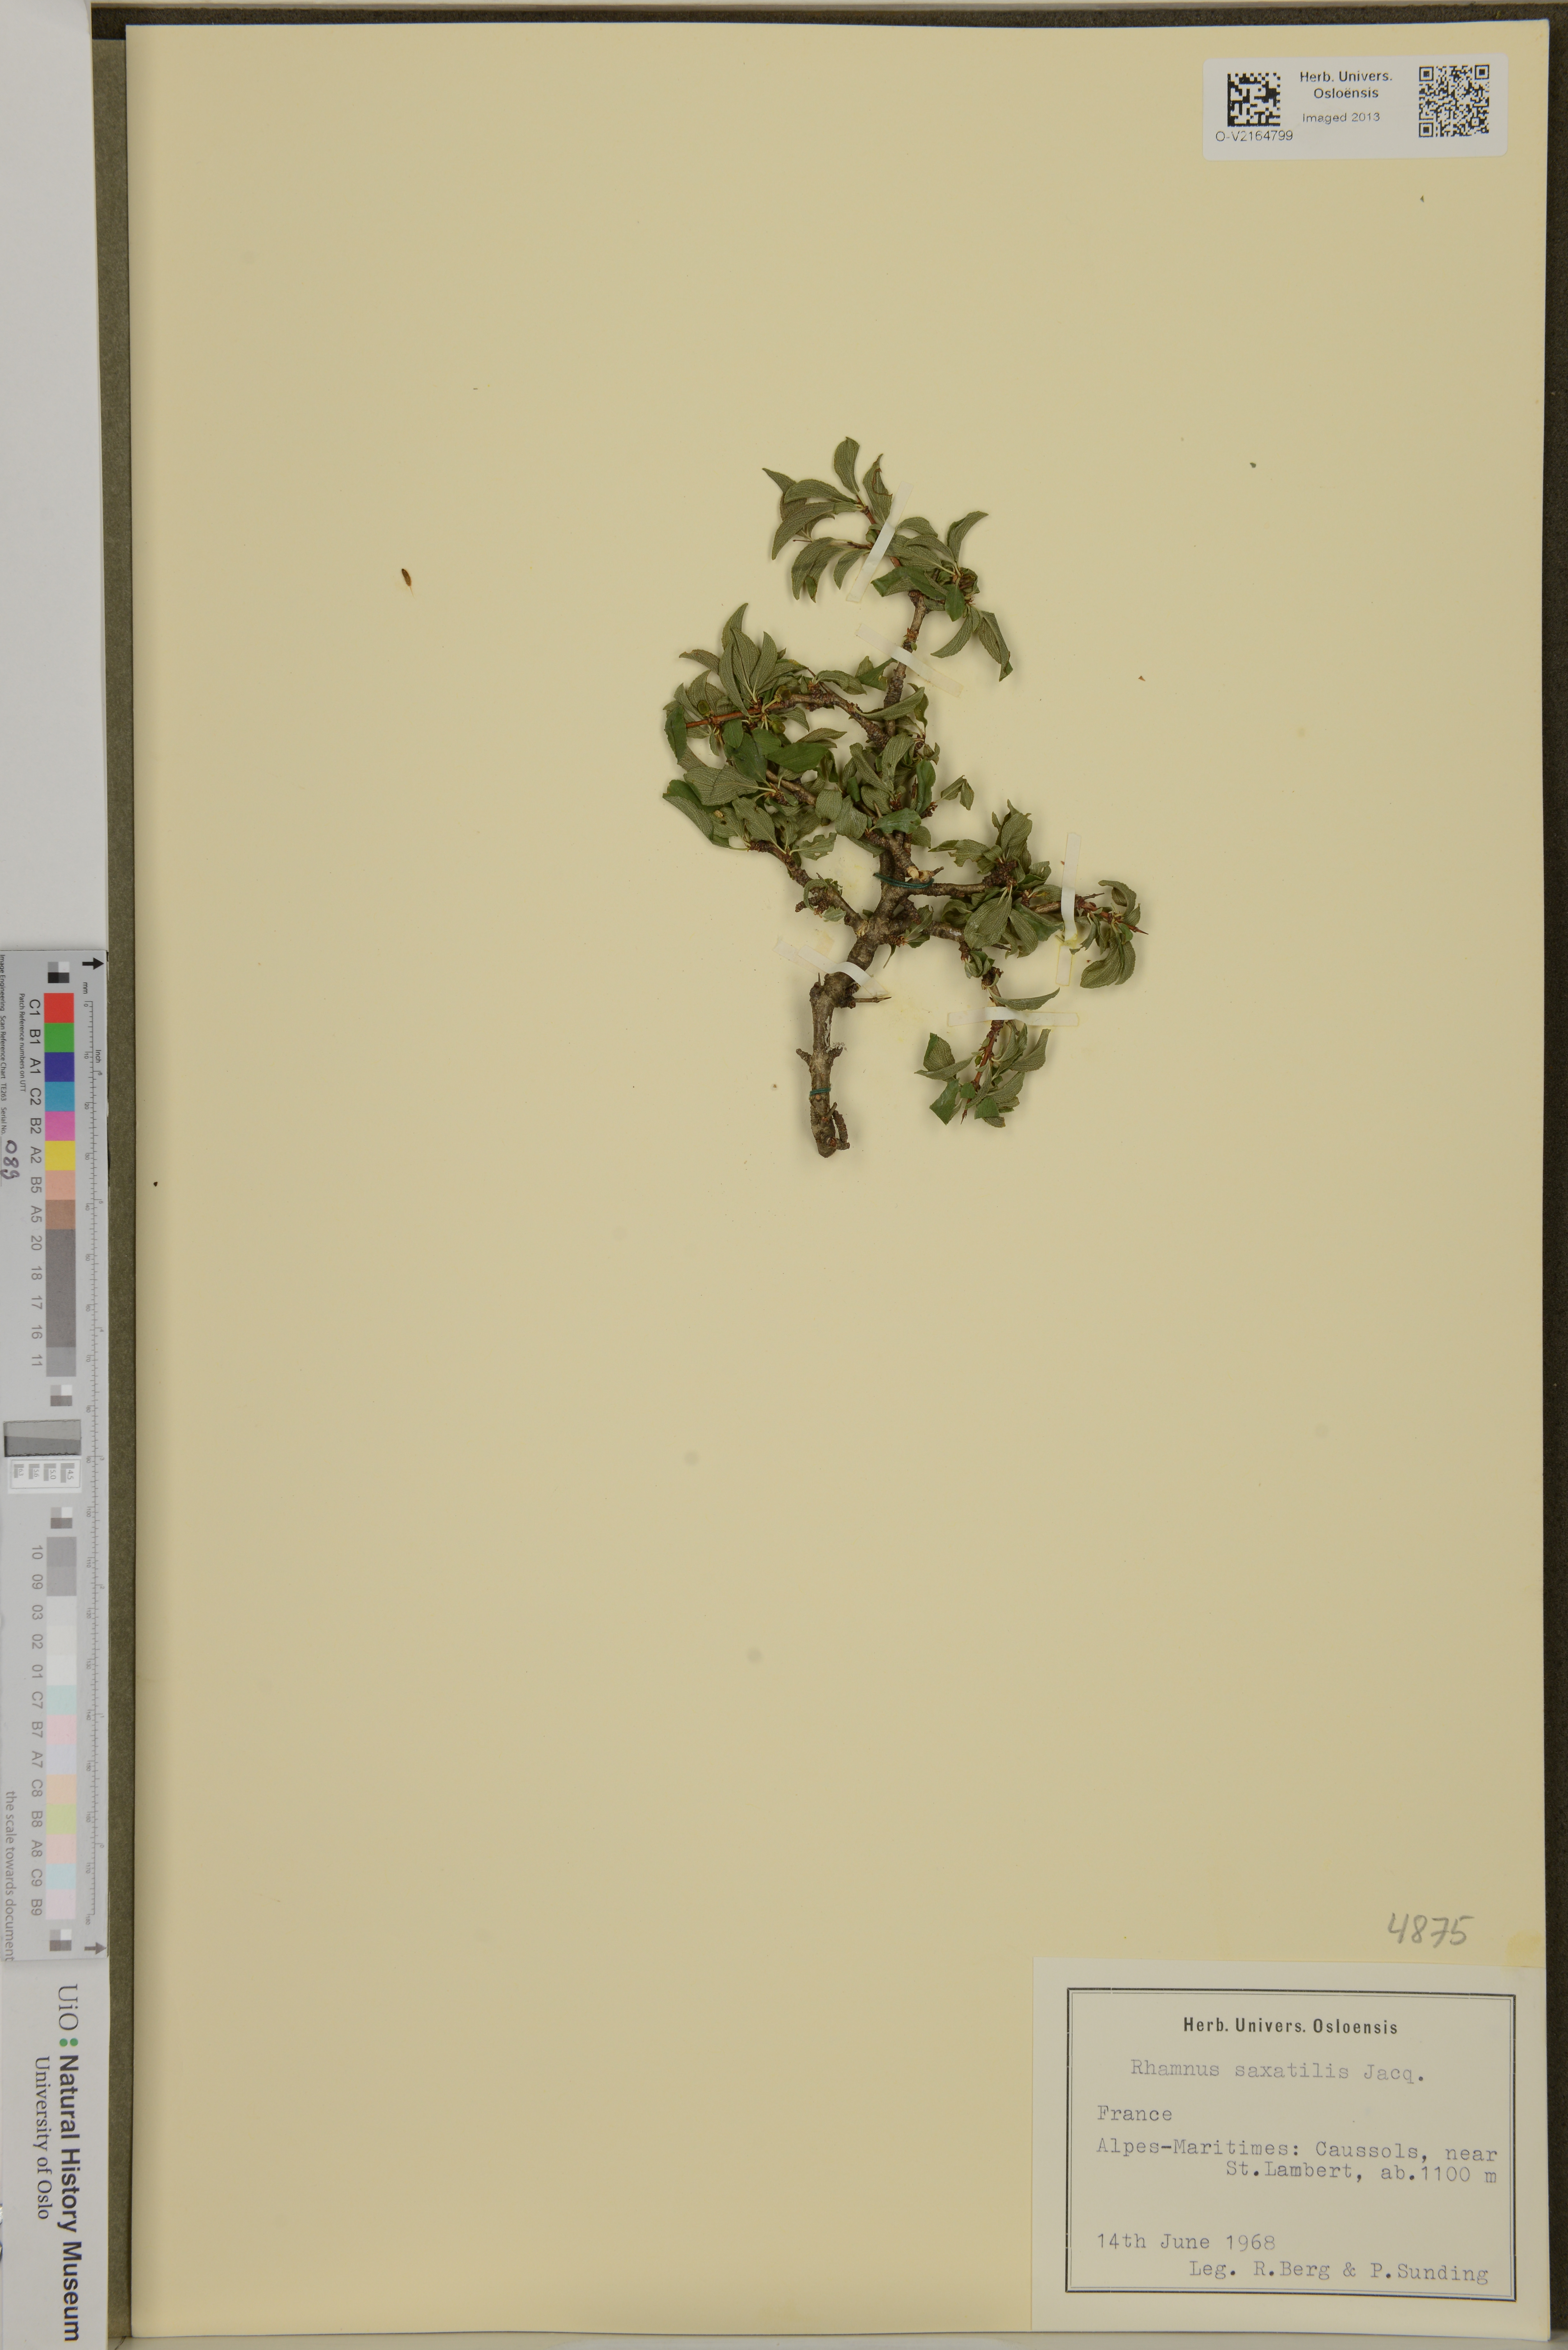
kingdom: Plantae
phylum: Tracheophyta
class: Magnoliopsida
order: Rosales
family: Rhamnaceae
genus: Rhamnus
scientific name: Rhamnus saxatilis
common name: Rock buckthorn
